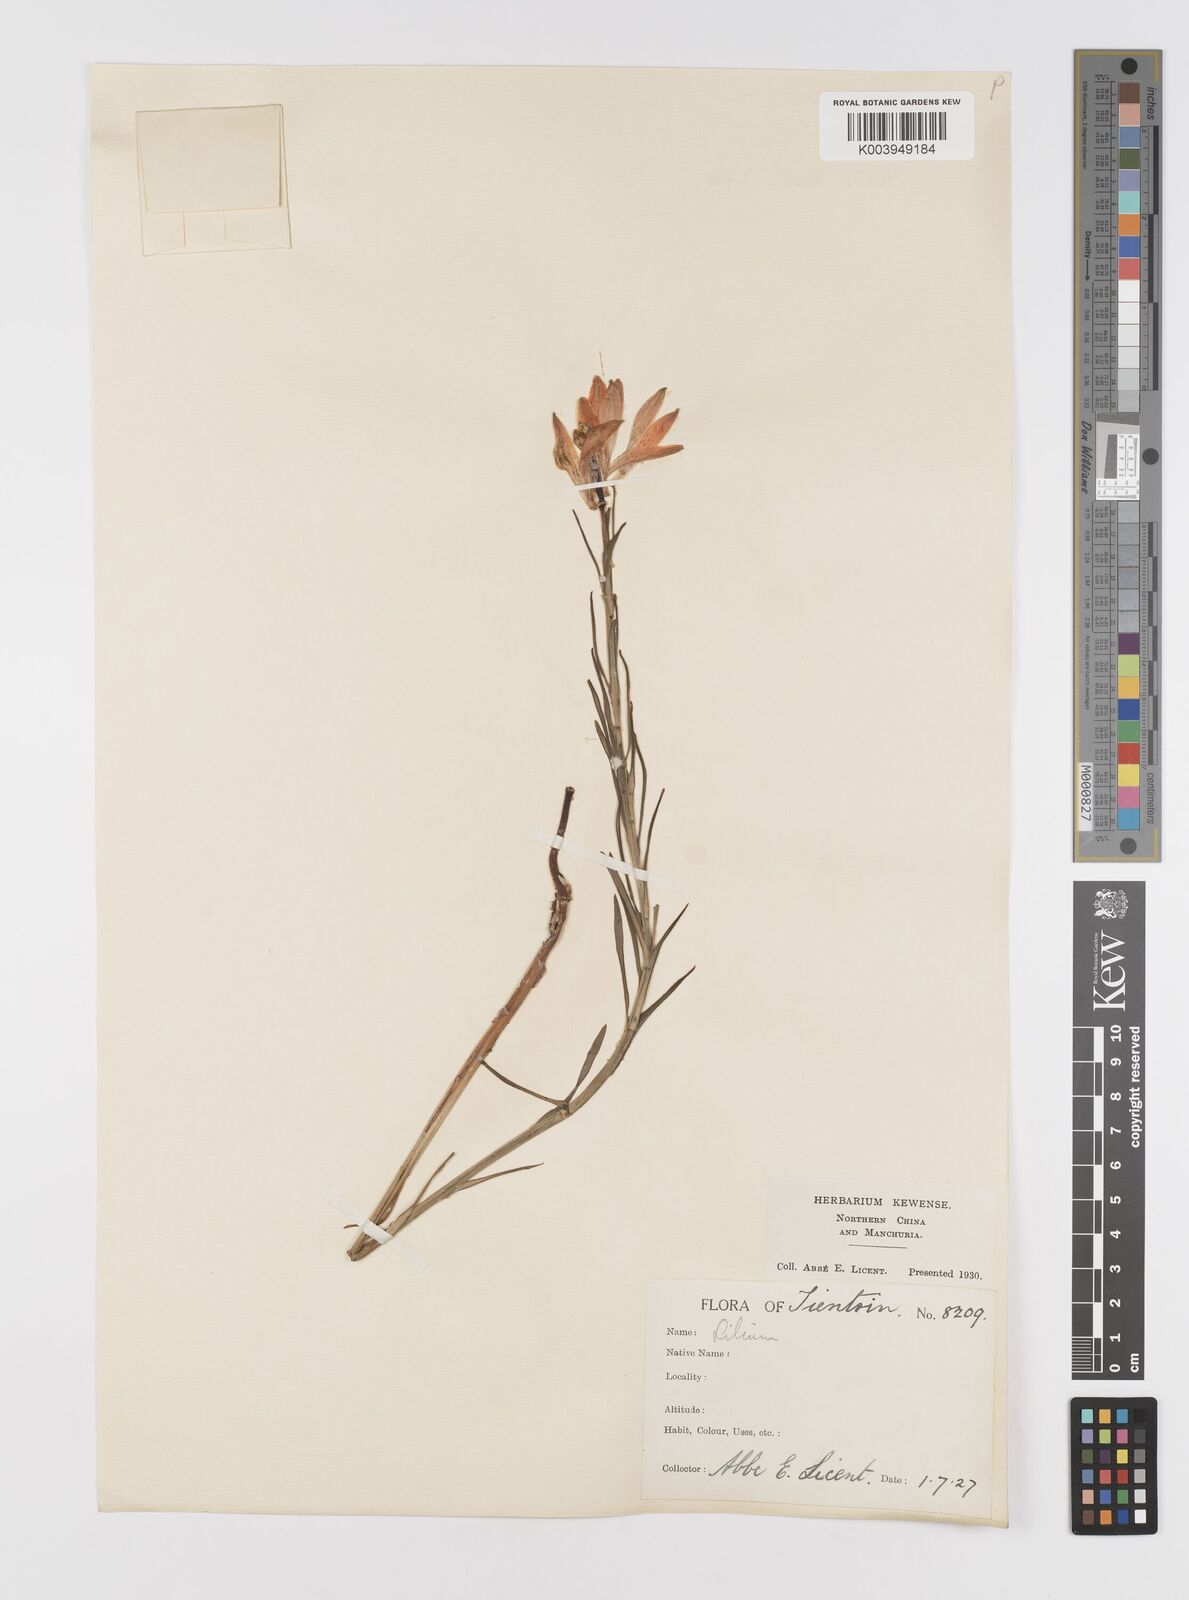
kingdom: Plantae
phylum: Tracheophyta
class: Liliopsida
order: Liliales
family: Liliaceae
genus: Lilium
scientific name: Lilium concolor
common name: Morning-star lily
